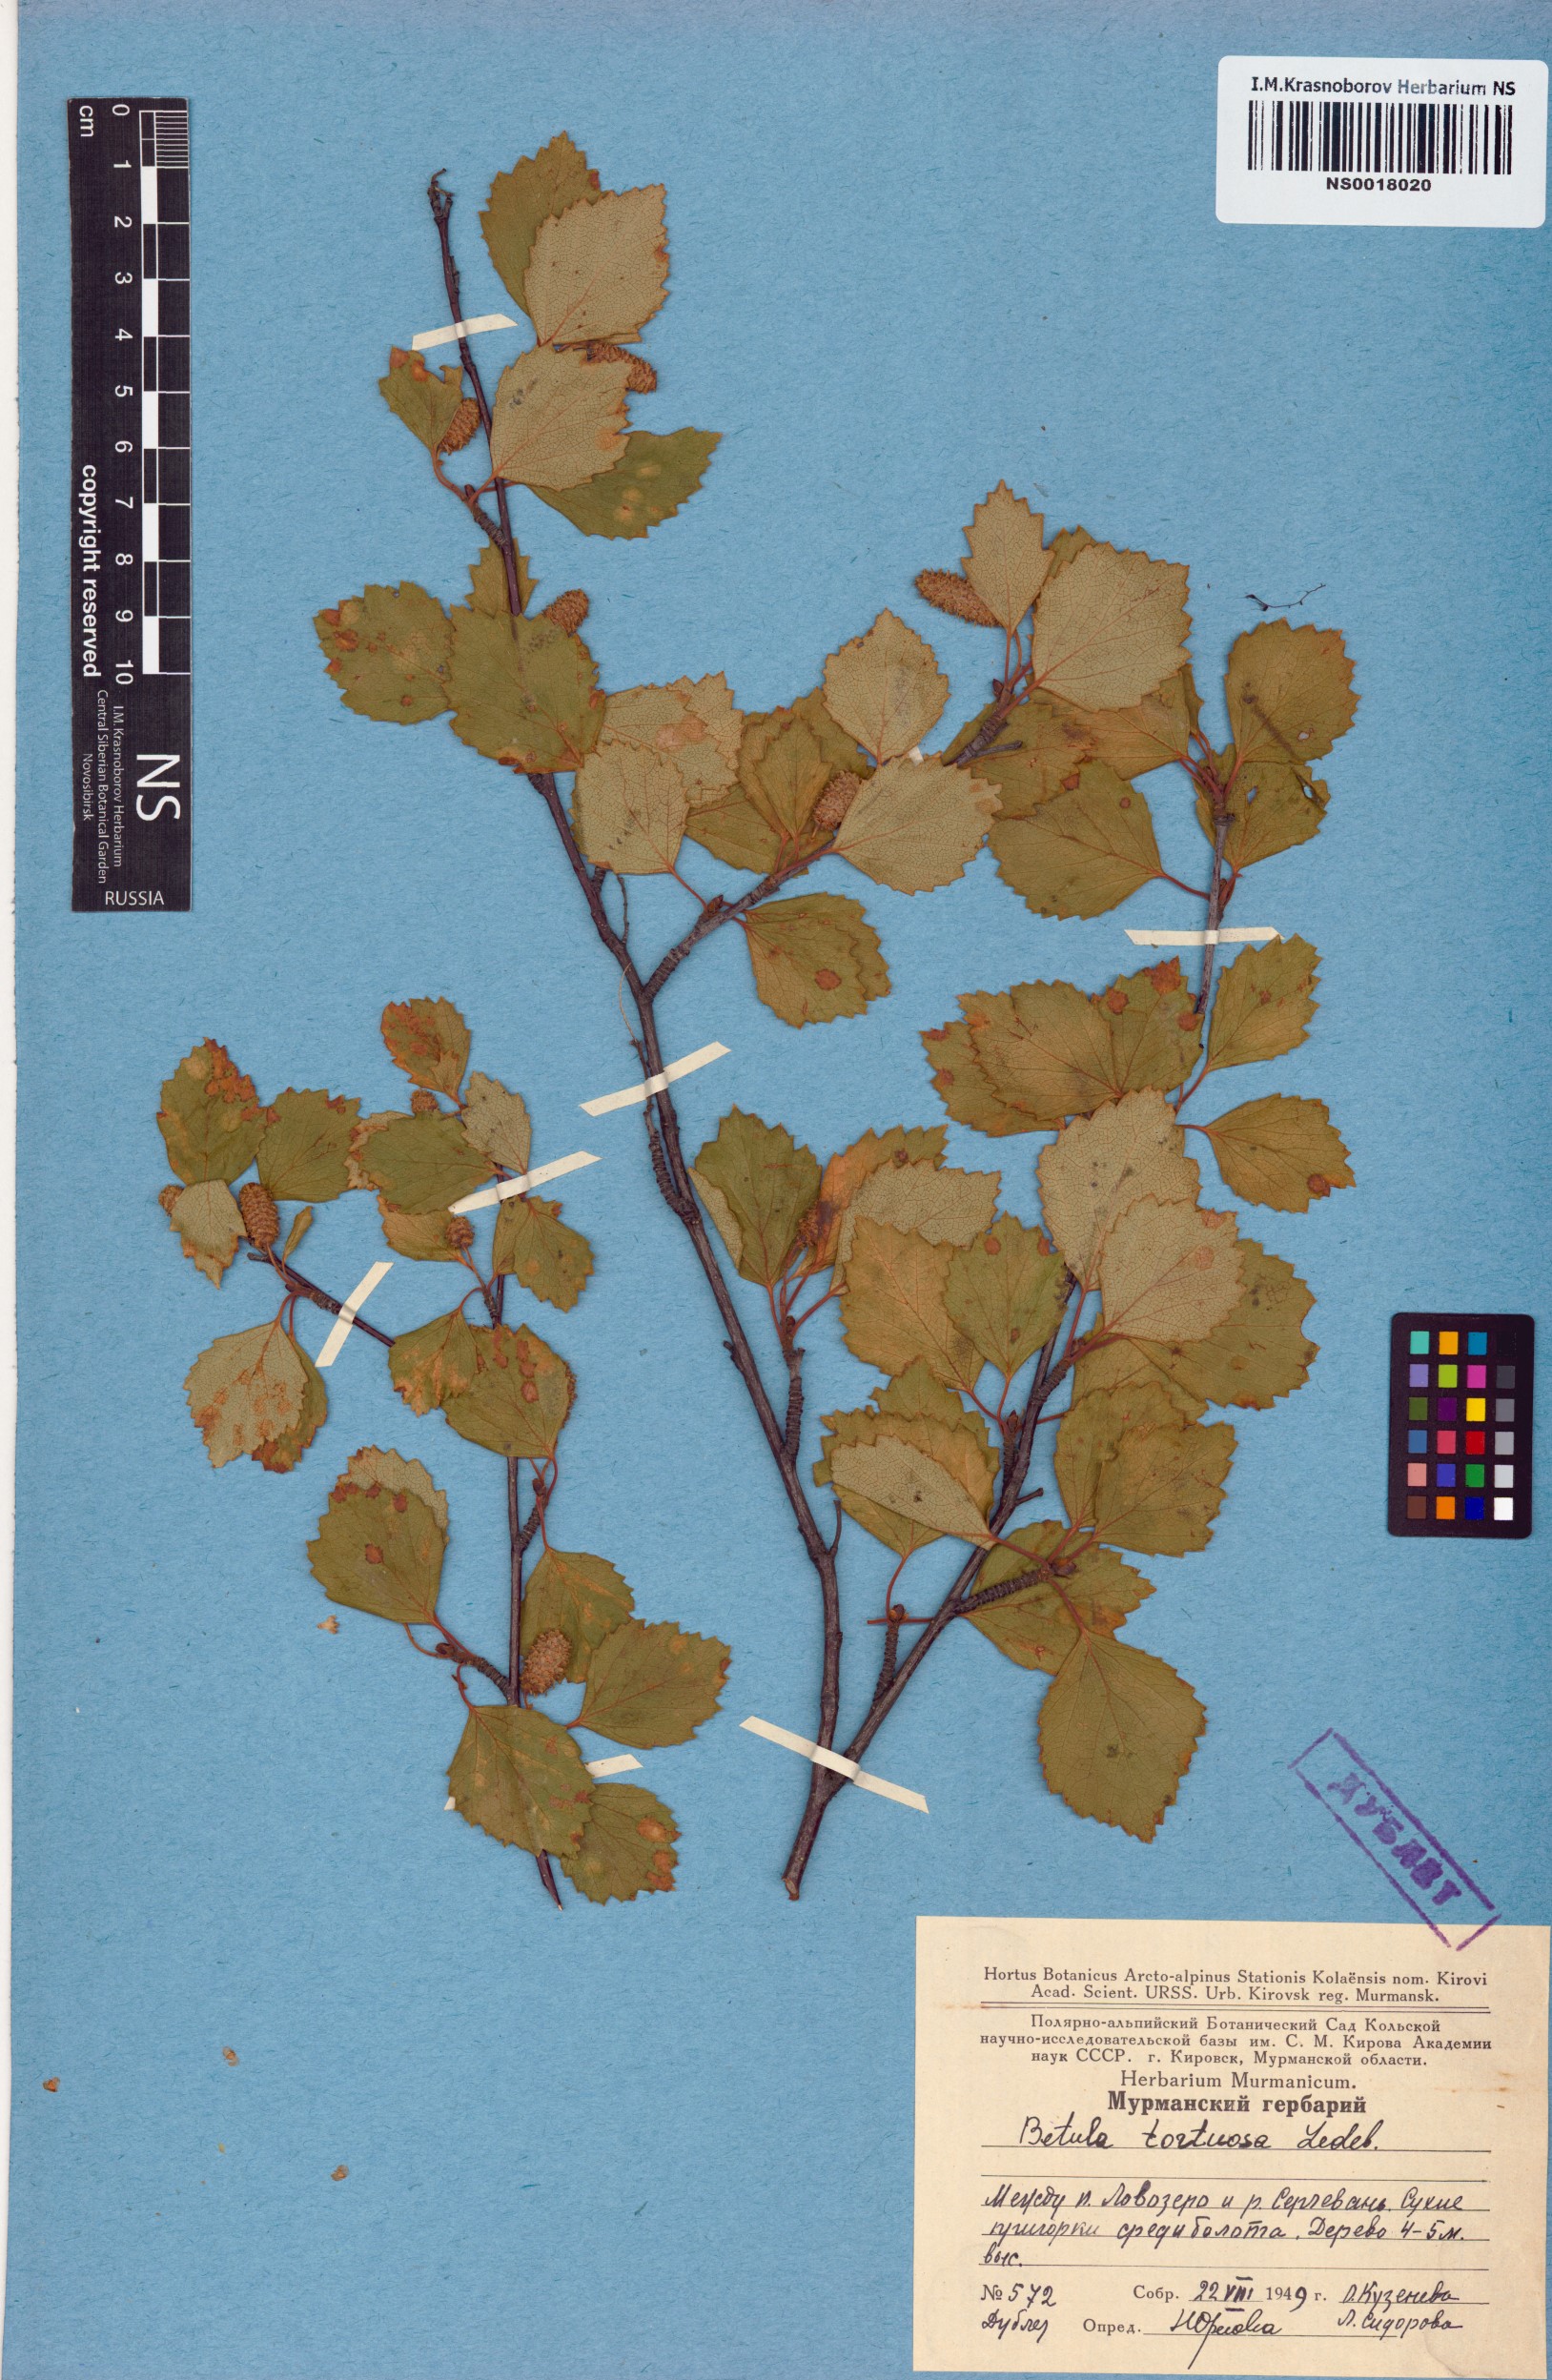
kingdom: Plantae
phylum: Tracheophyta
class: Magnoliopsida
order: Fagales
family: Betulaceae
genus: Betula
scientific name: Betula pubescens
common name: Downy birch
